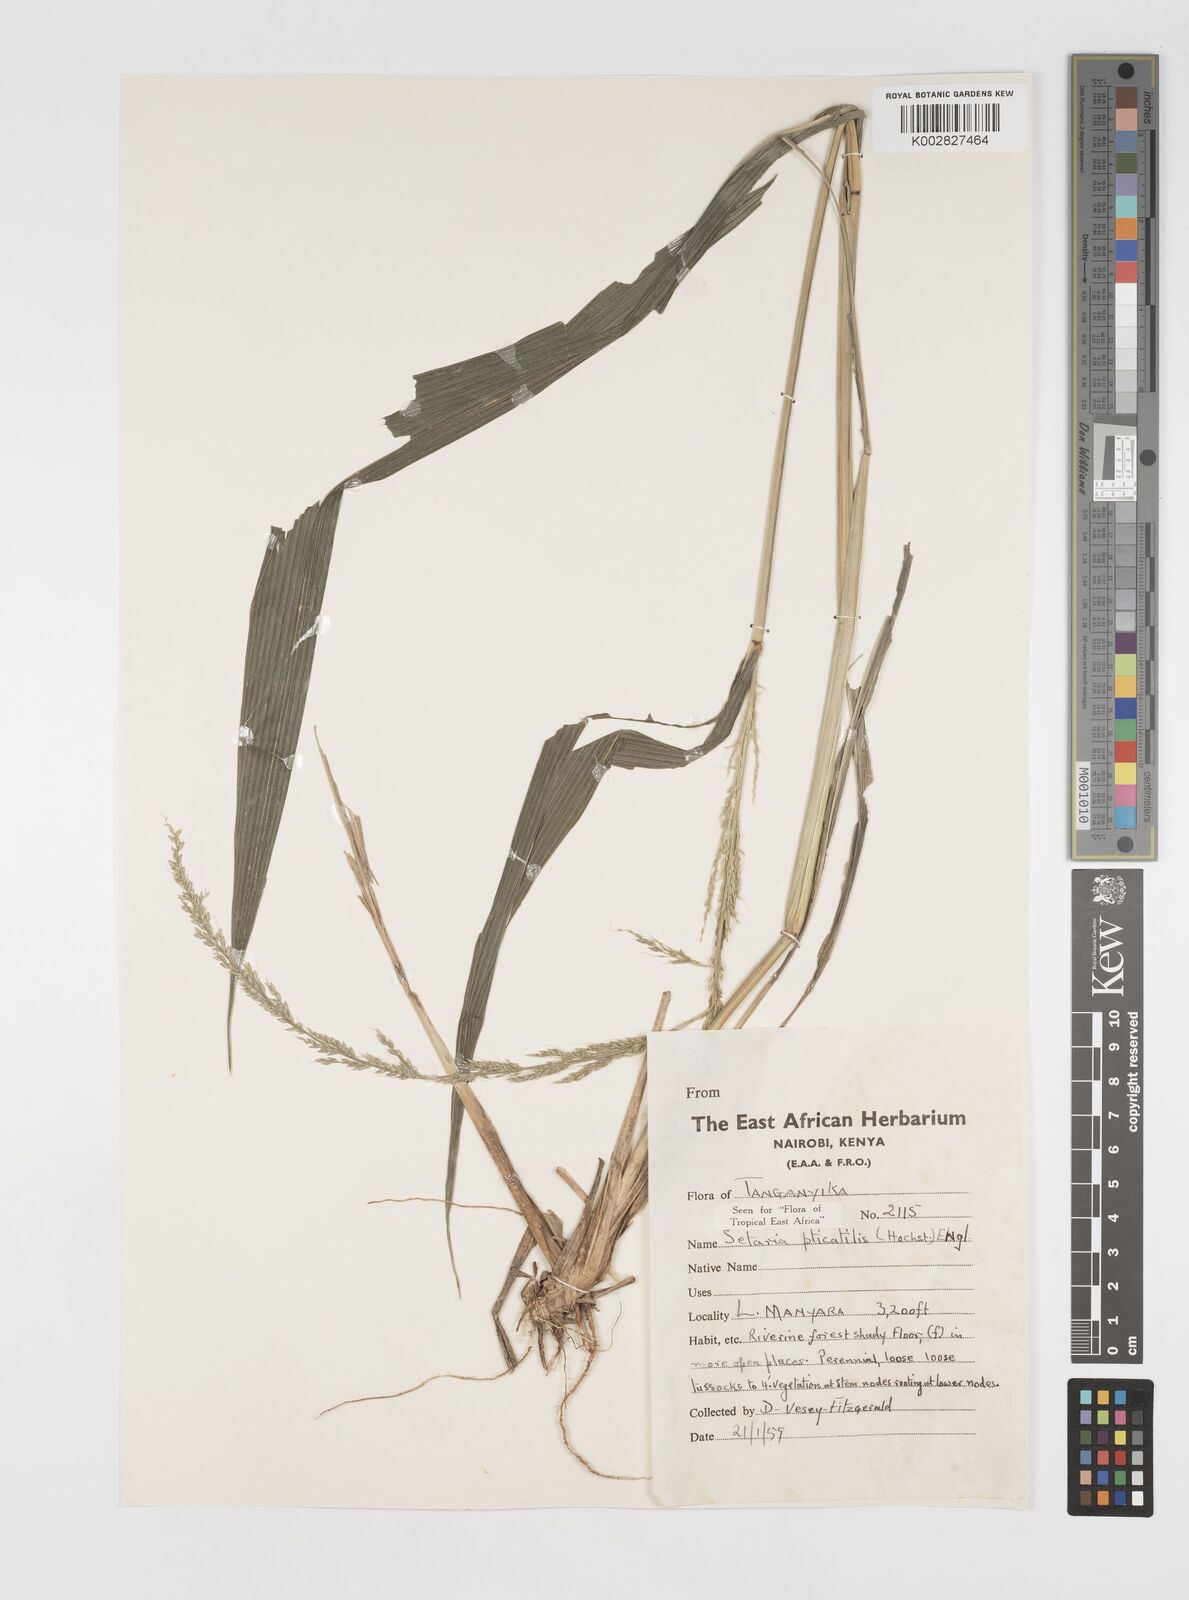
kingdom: Plantae
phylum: Tracheophyta
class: Liliopsida
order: Poales
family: Poaceae
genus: Setaria
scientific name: Setaria megaphylla
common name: Bigleaf bristlegrass
